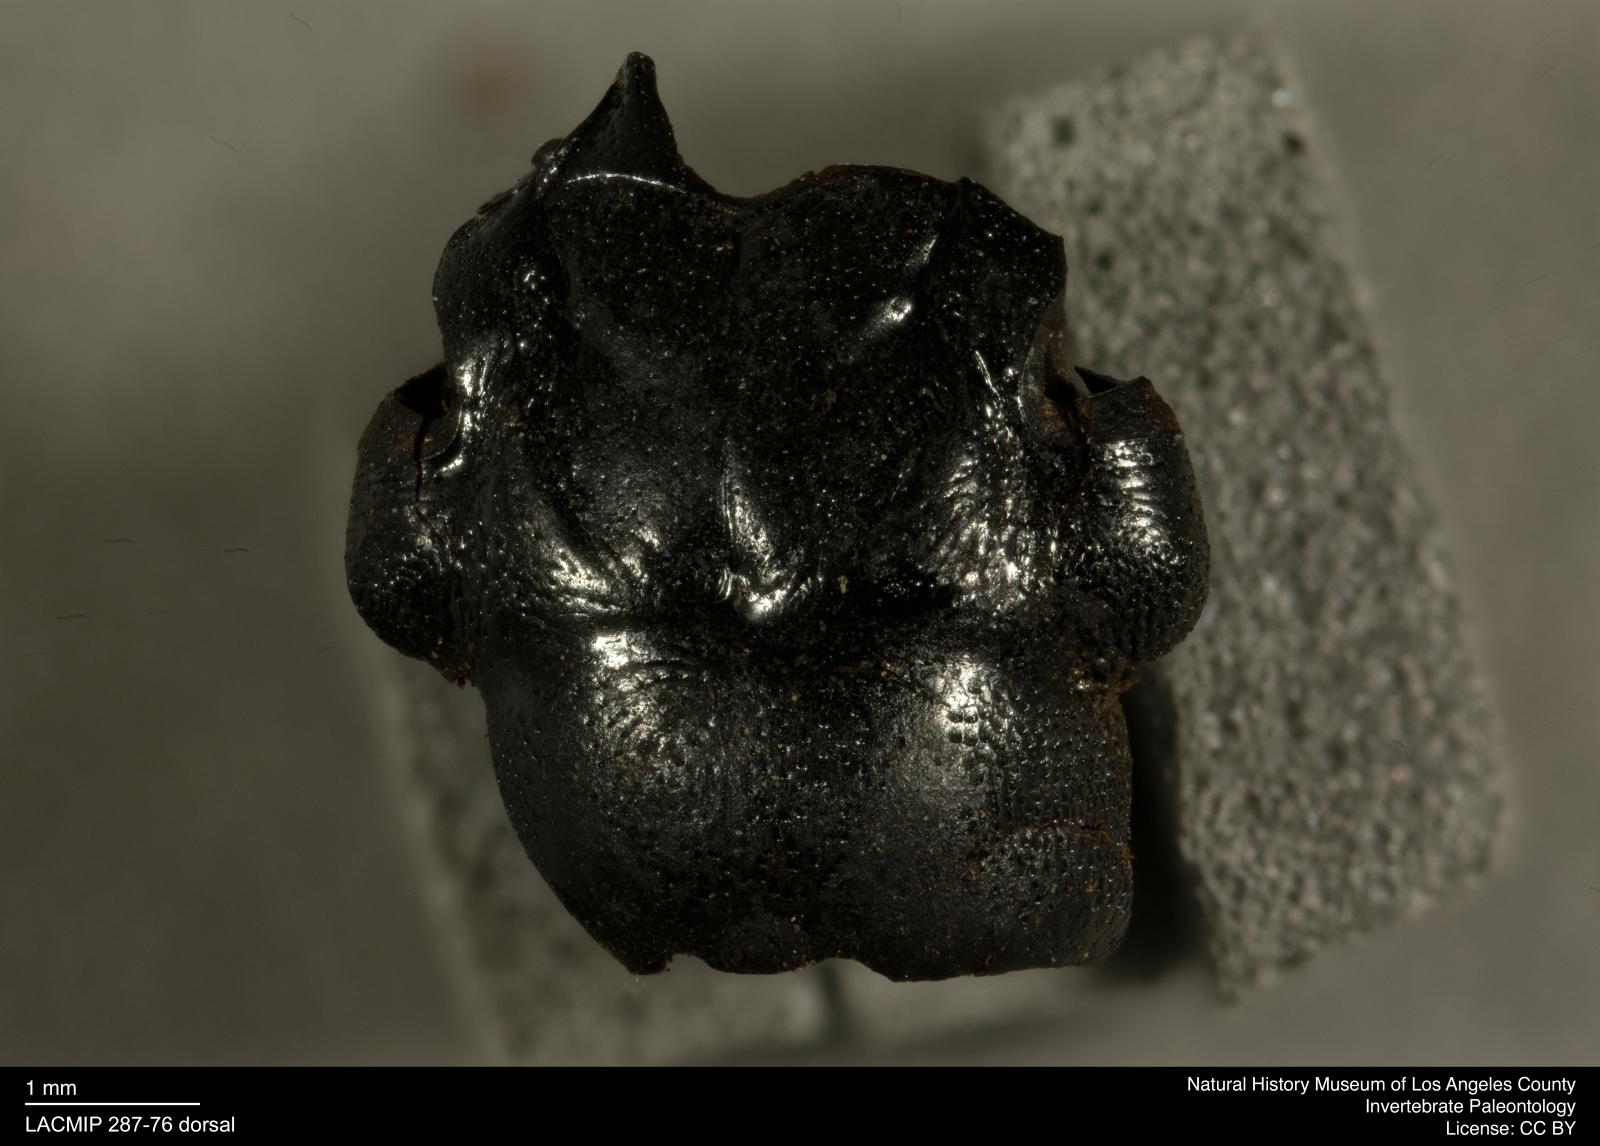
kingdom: Animalia
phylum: Arthropoda
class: Insecta
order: Coleoptera
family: Staphylinidae
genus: Nicrophorus
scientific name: Nicrophorus marginatus
